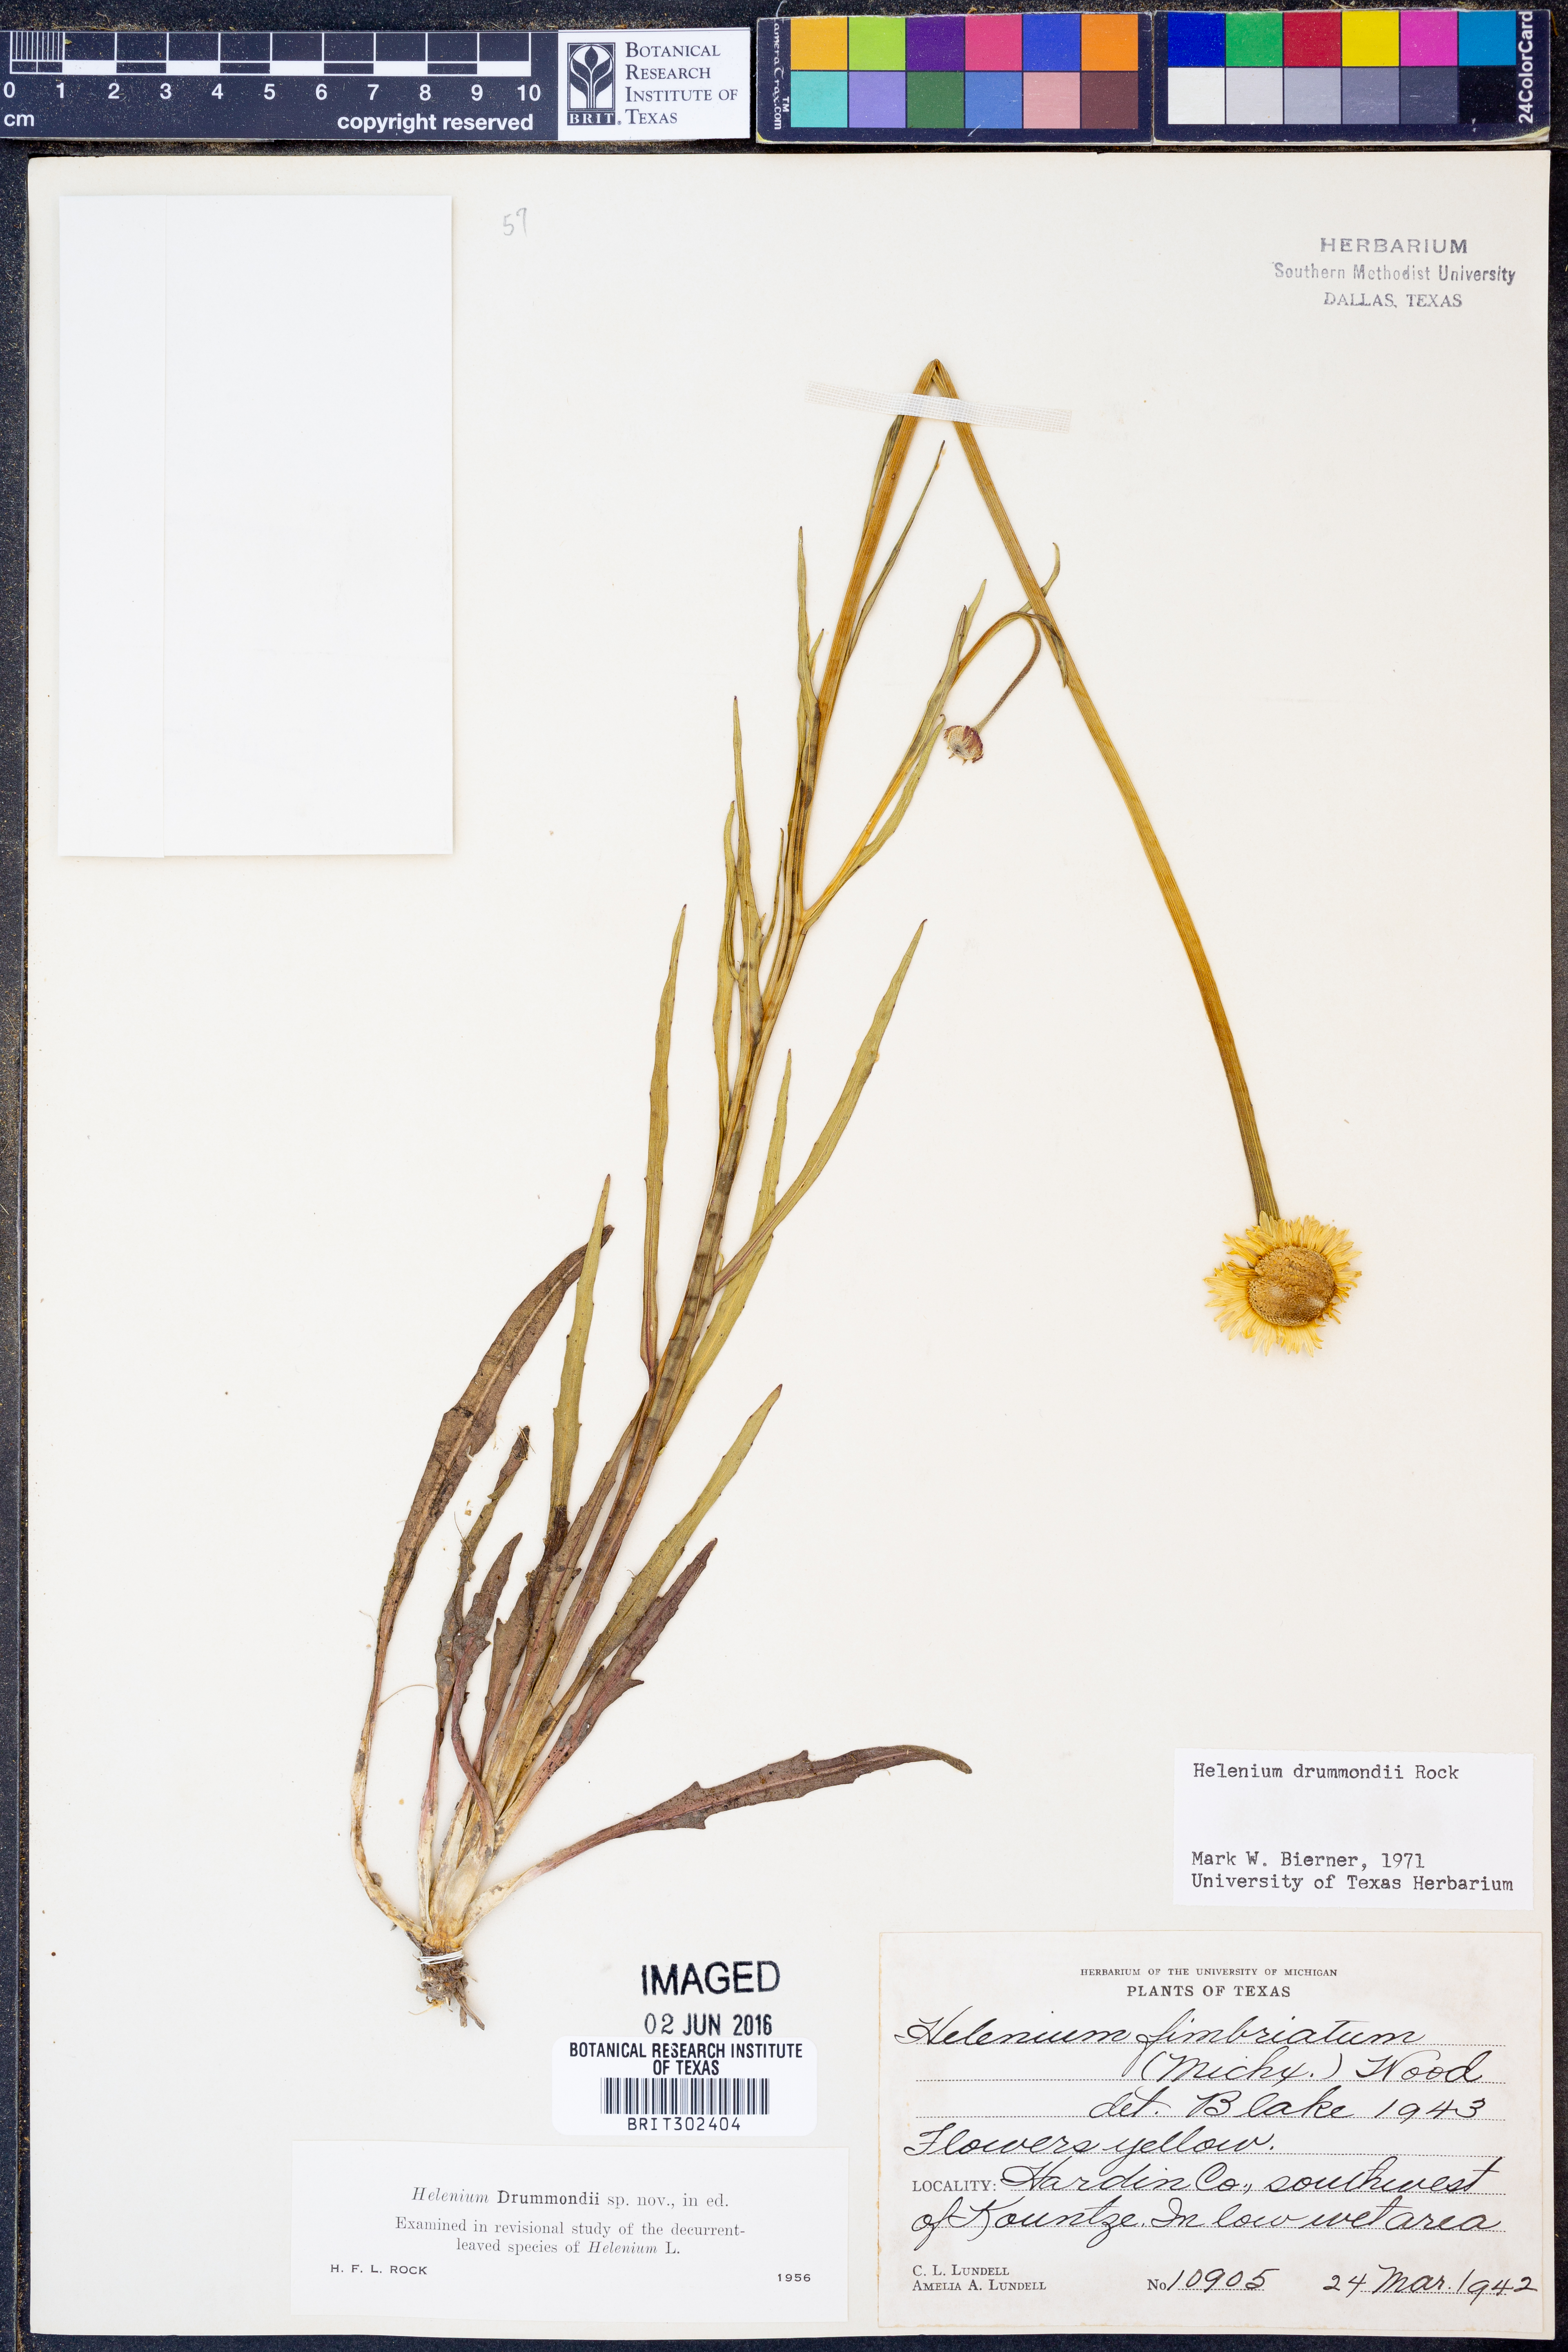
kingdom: Plantae
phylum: Tracheophyta
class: Magnoliopsida
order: Asterales
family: Asteraceae
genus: Helenium
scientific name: Helenium drummondii
